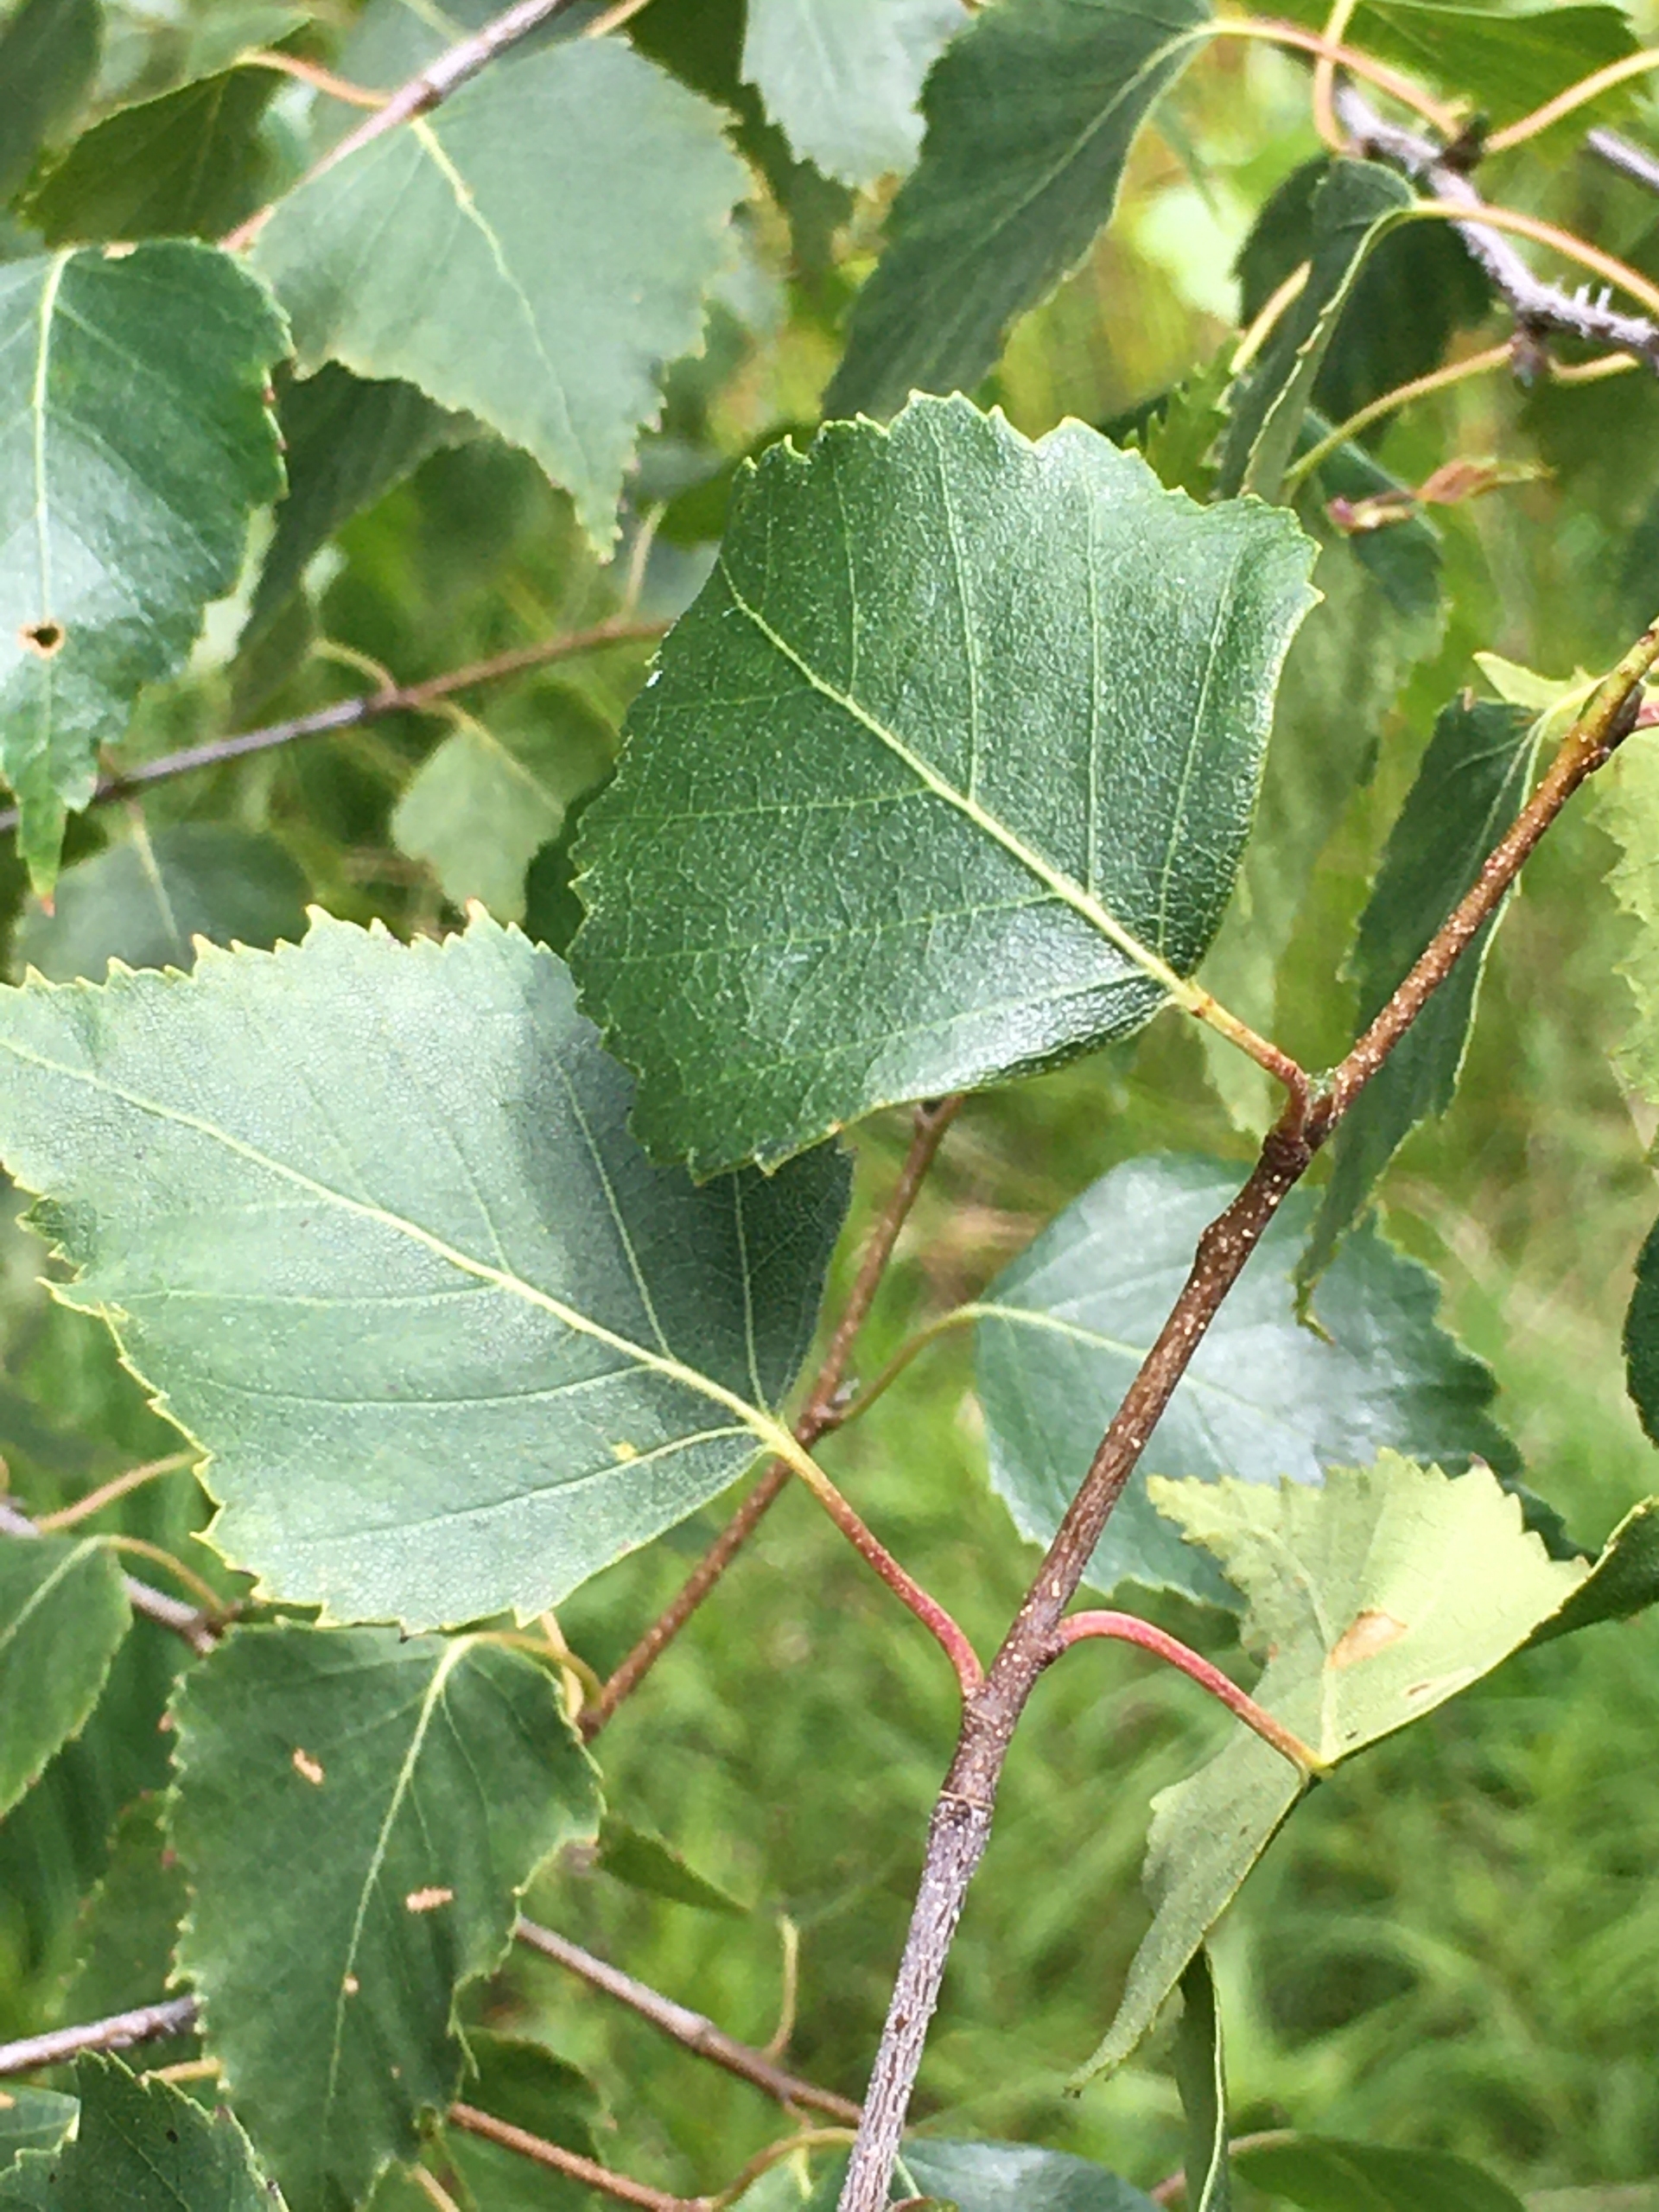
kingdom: Plantae
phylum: Tracheophyta
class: Magnoliopsida
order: Fagales
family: Betulaceae
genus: Betula
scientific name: Betula pendula
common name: Vorte-birk
